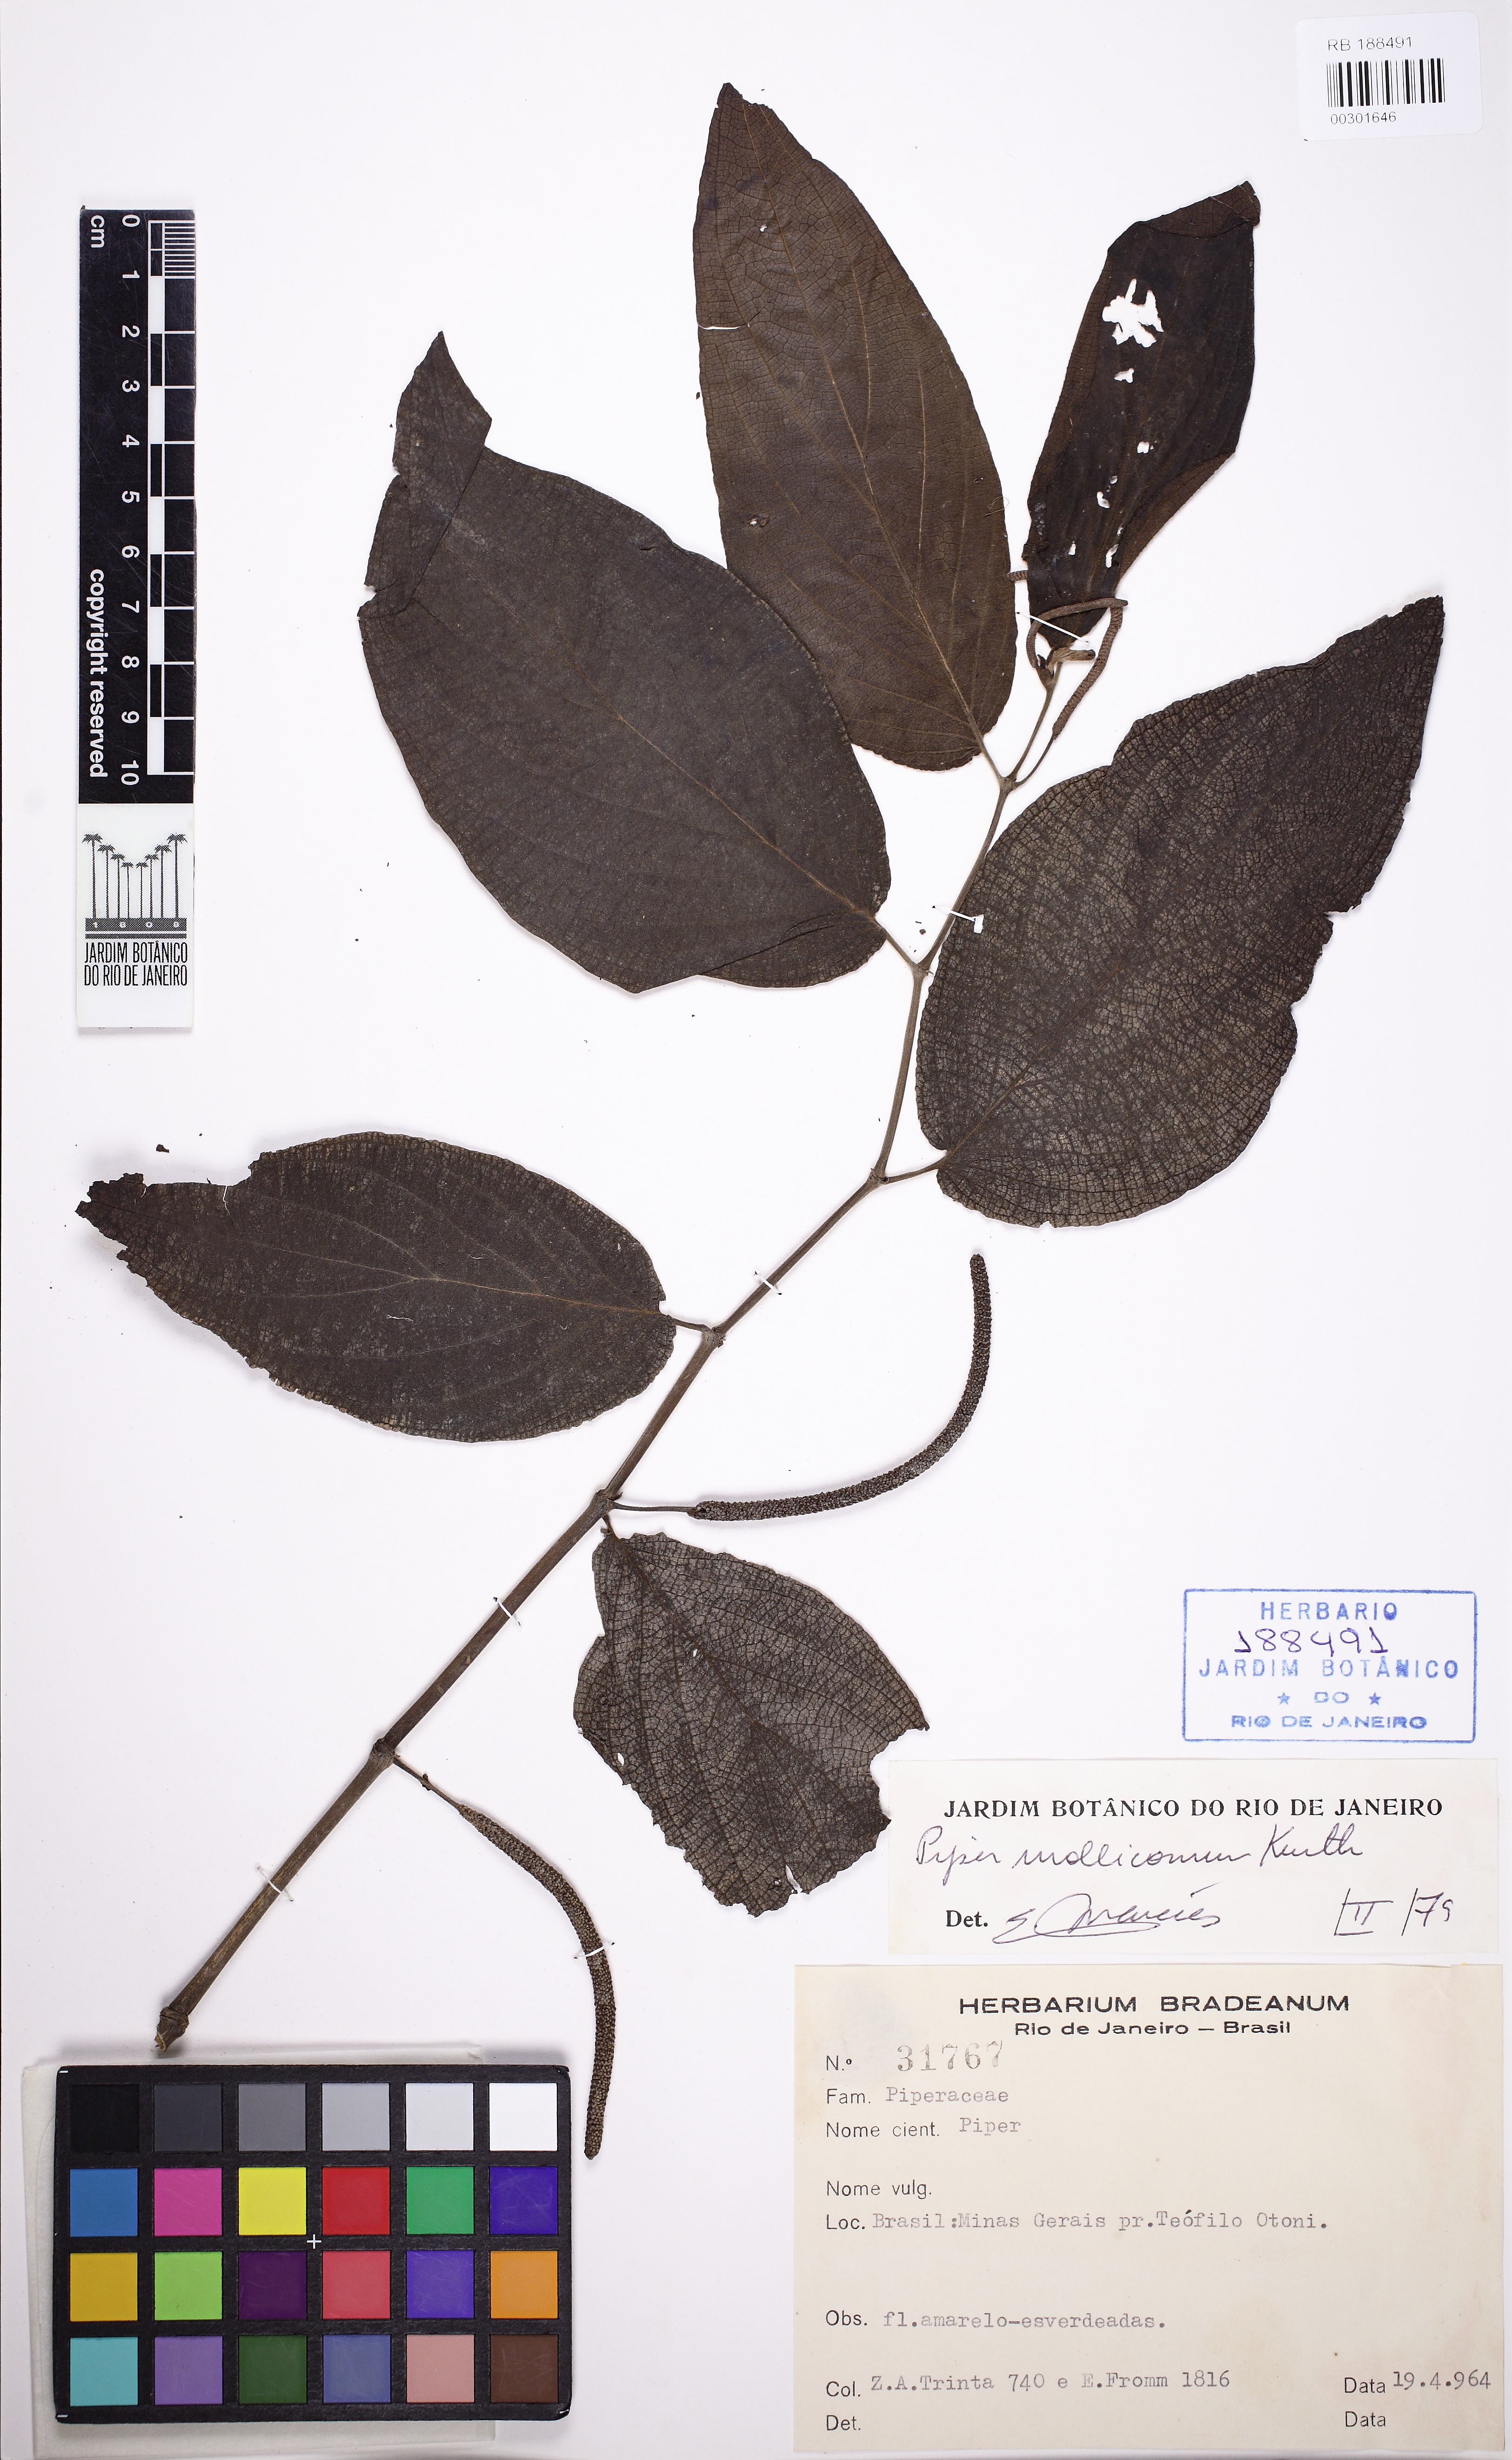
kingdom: Plantae
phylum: Tracheophyta
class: Magnoliopsida
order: Piperales
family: Piperaceae
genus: Piper
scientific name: Piper mollicomum
